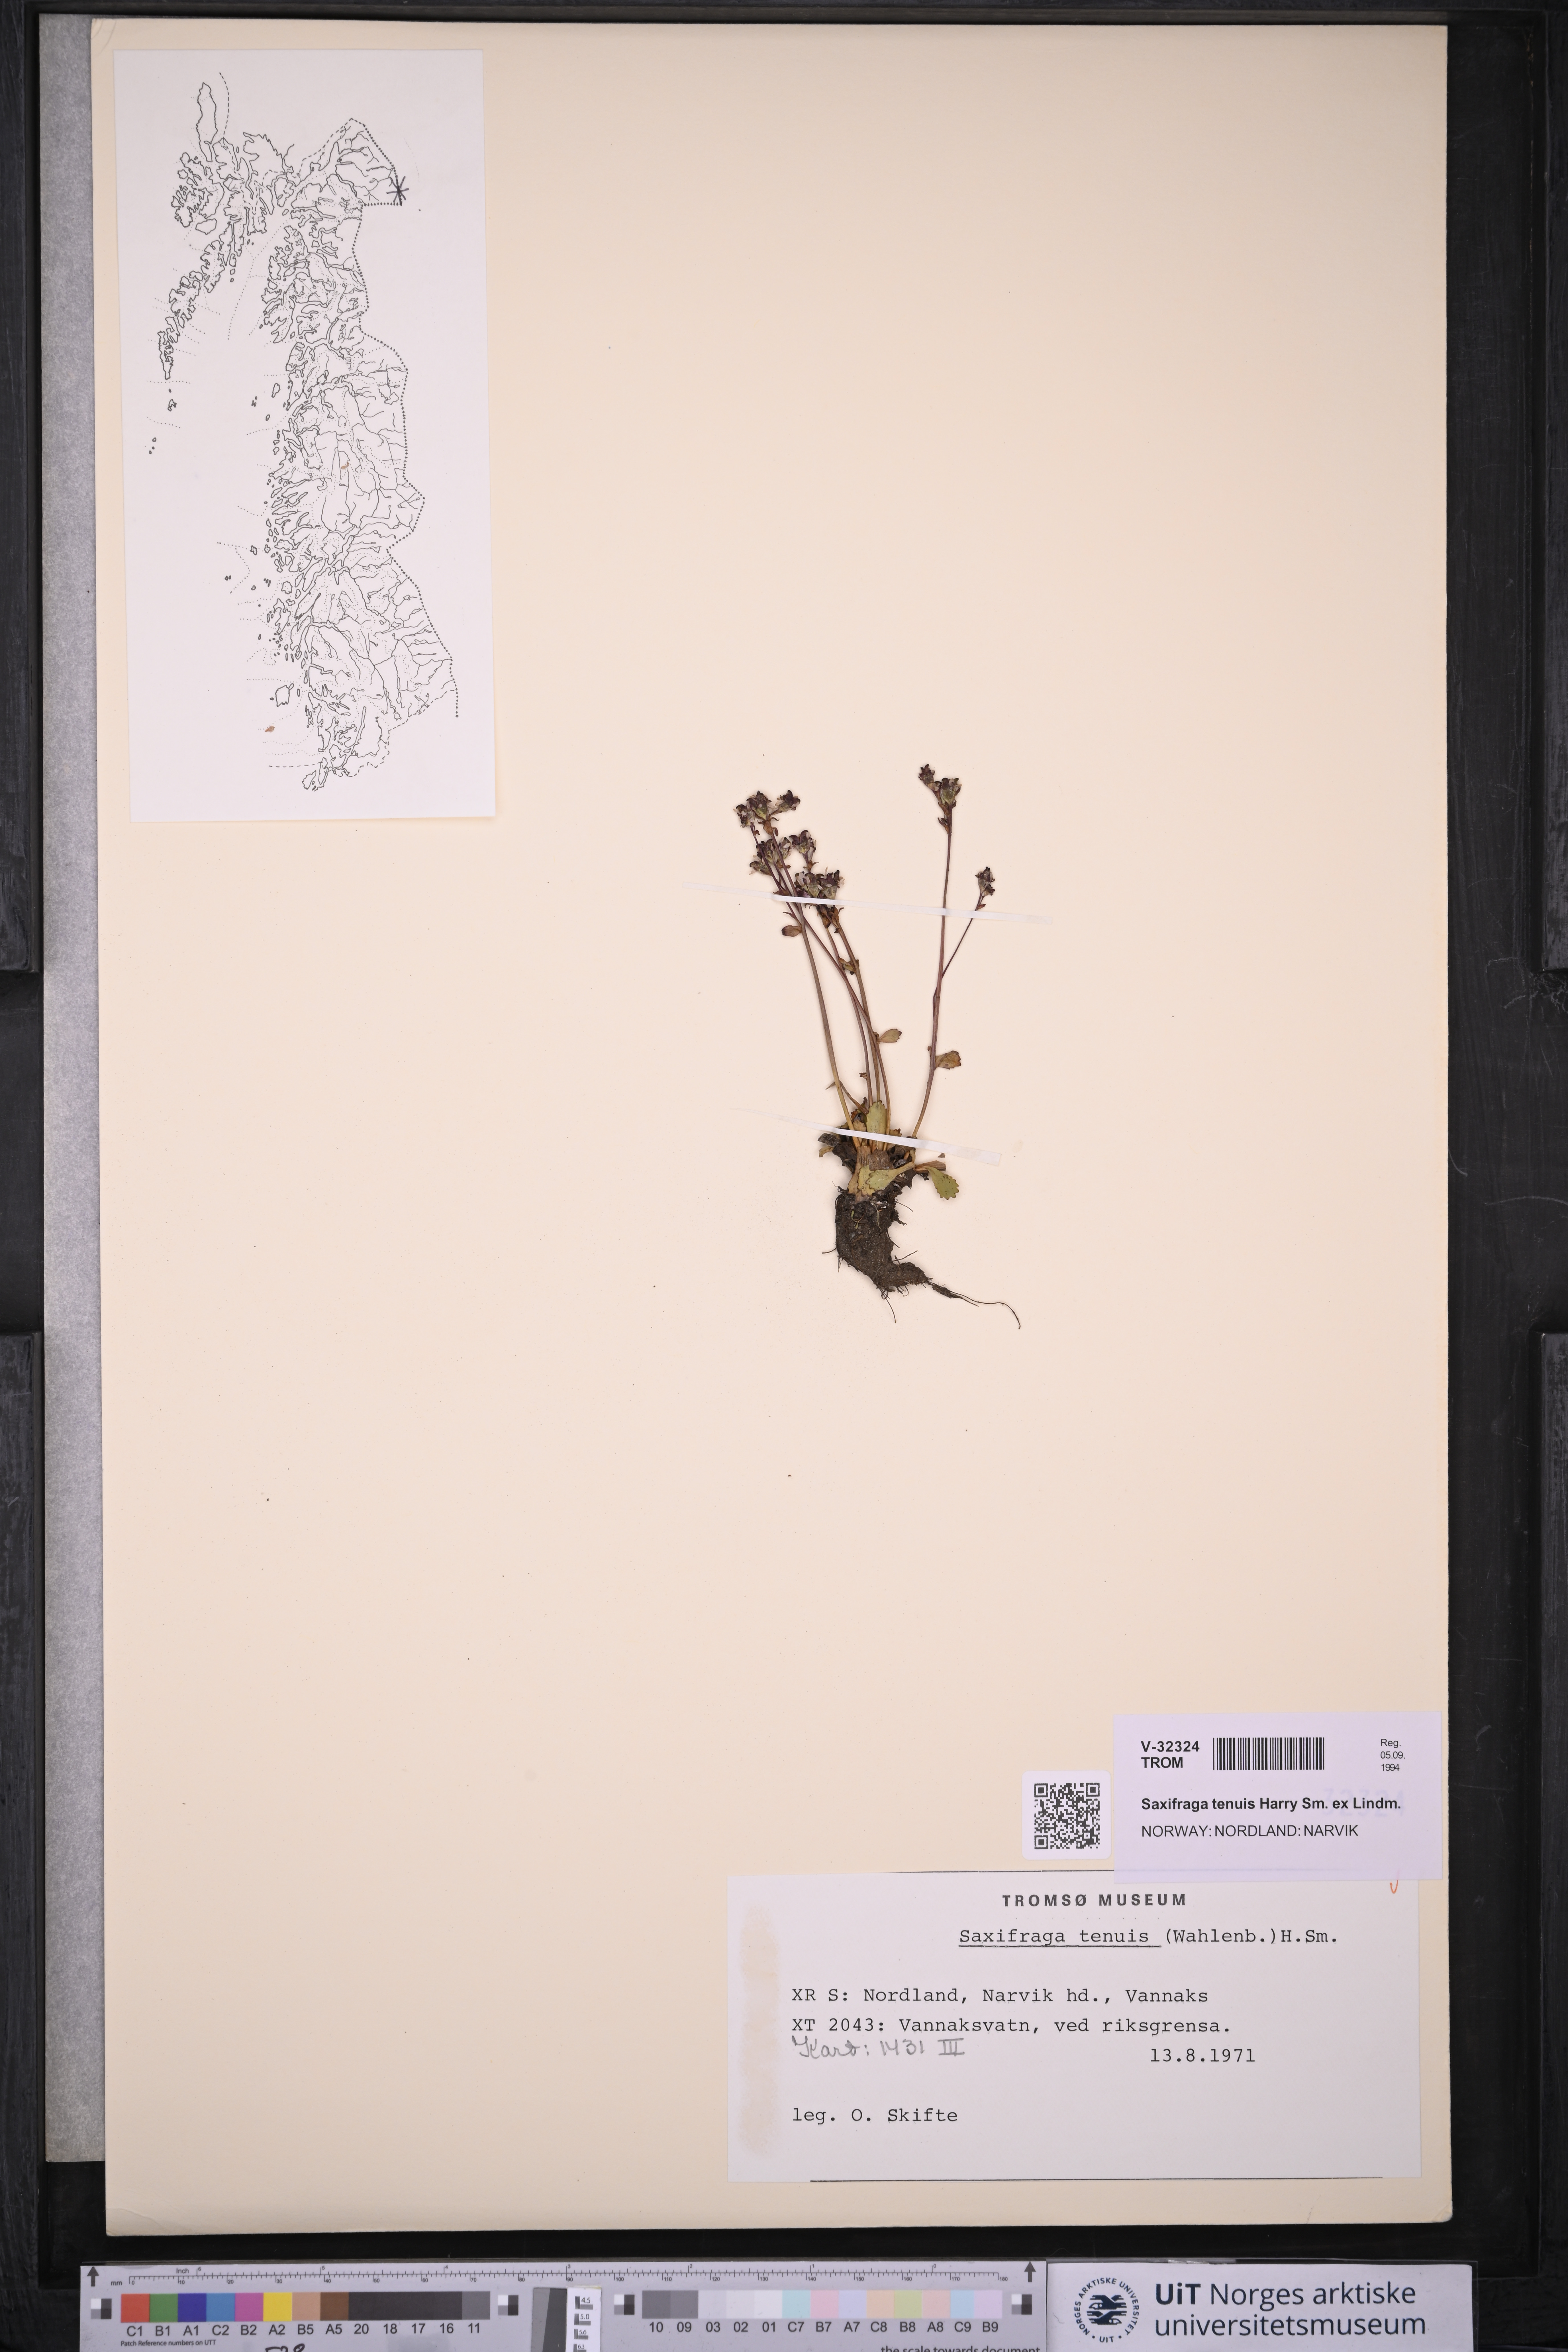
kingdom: Plantae
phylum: Tracheophyta
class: Magnoliopsida
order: Saxifragales
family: Saxifragaceae
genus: Micranthes
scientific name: Micranthes tenuis
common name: Ottertail pass saxifrage
